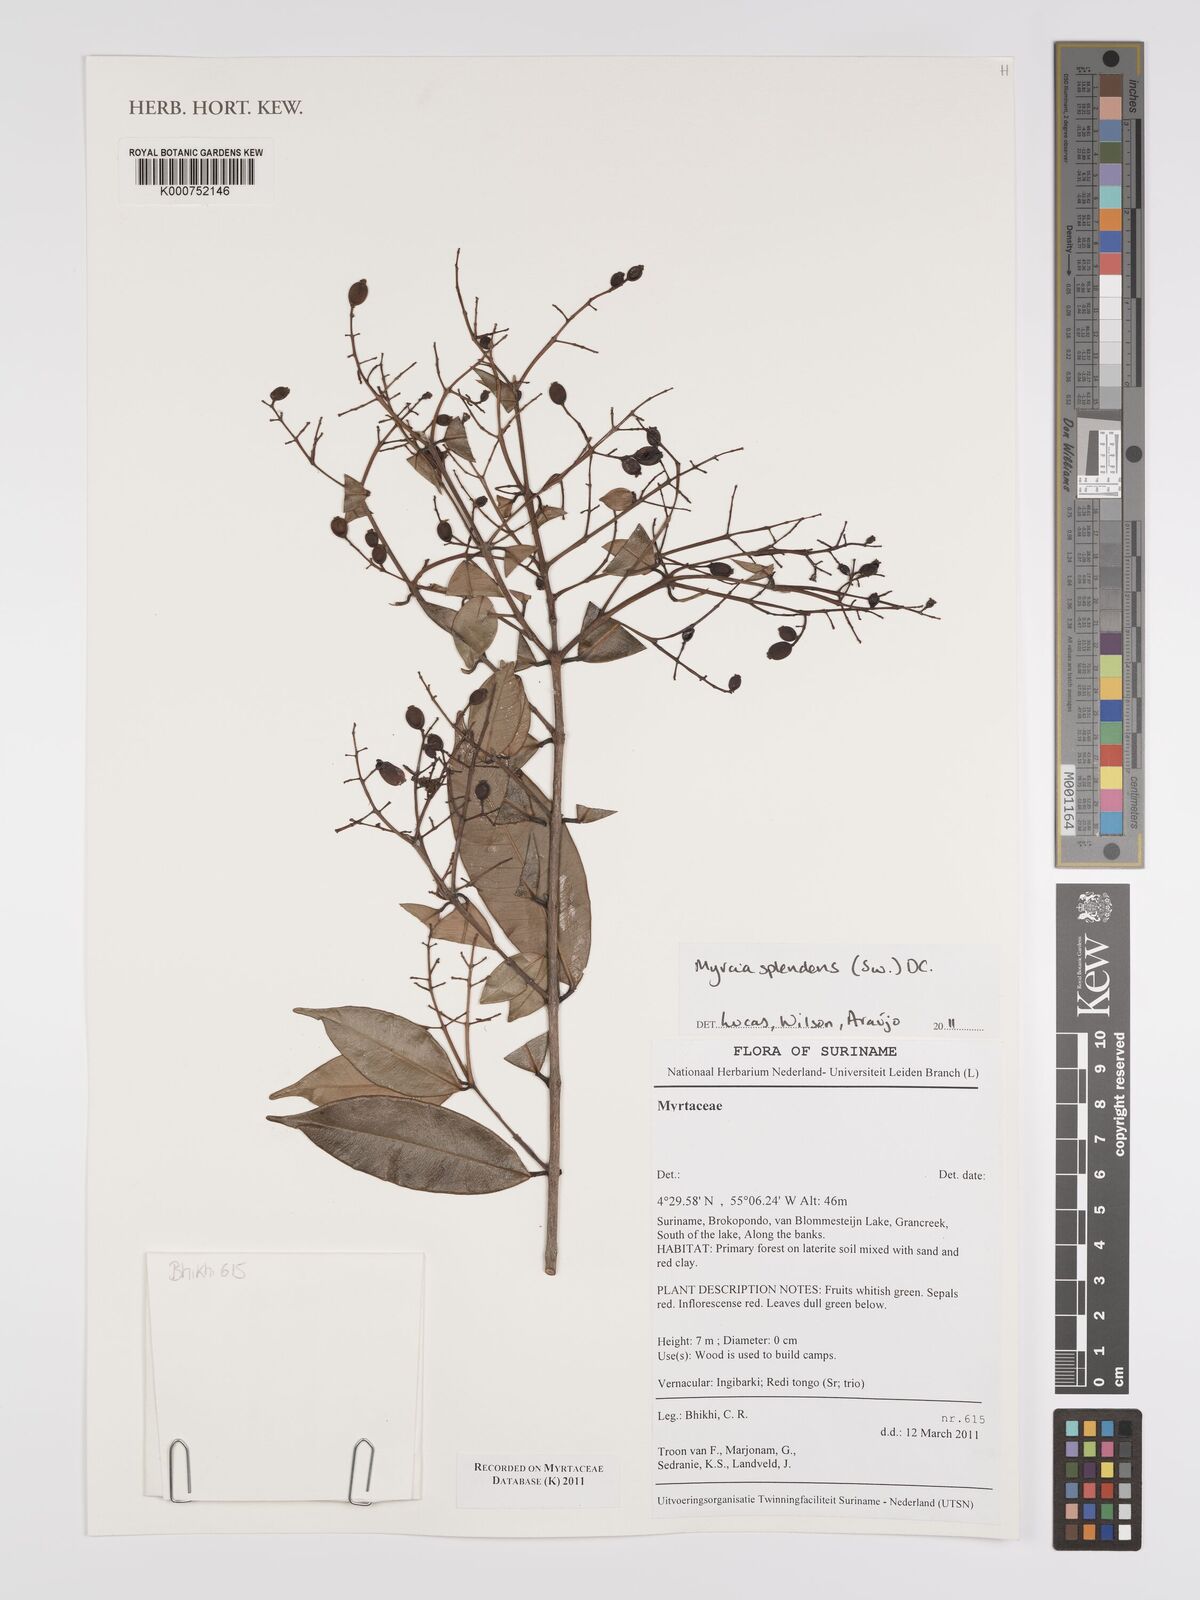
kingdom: Plantae
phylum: Tracheophyta
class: Magnoliopsida
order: Myrtales
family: Myrtaceae
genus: Myrcia
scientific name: Myrcia splendens
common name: Surinam cherry
